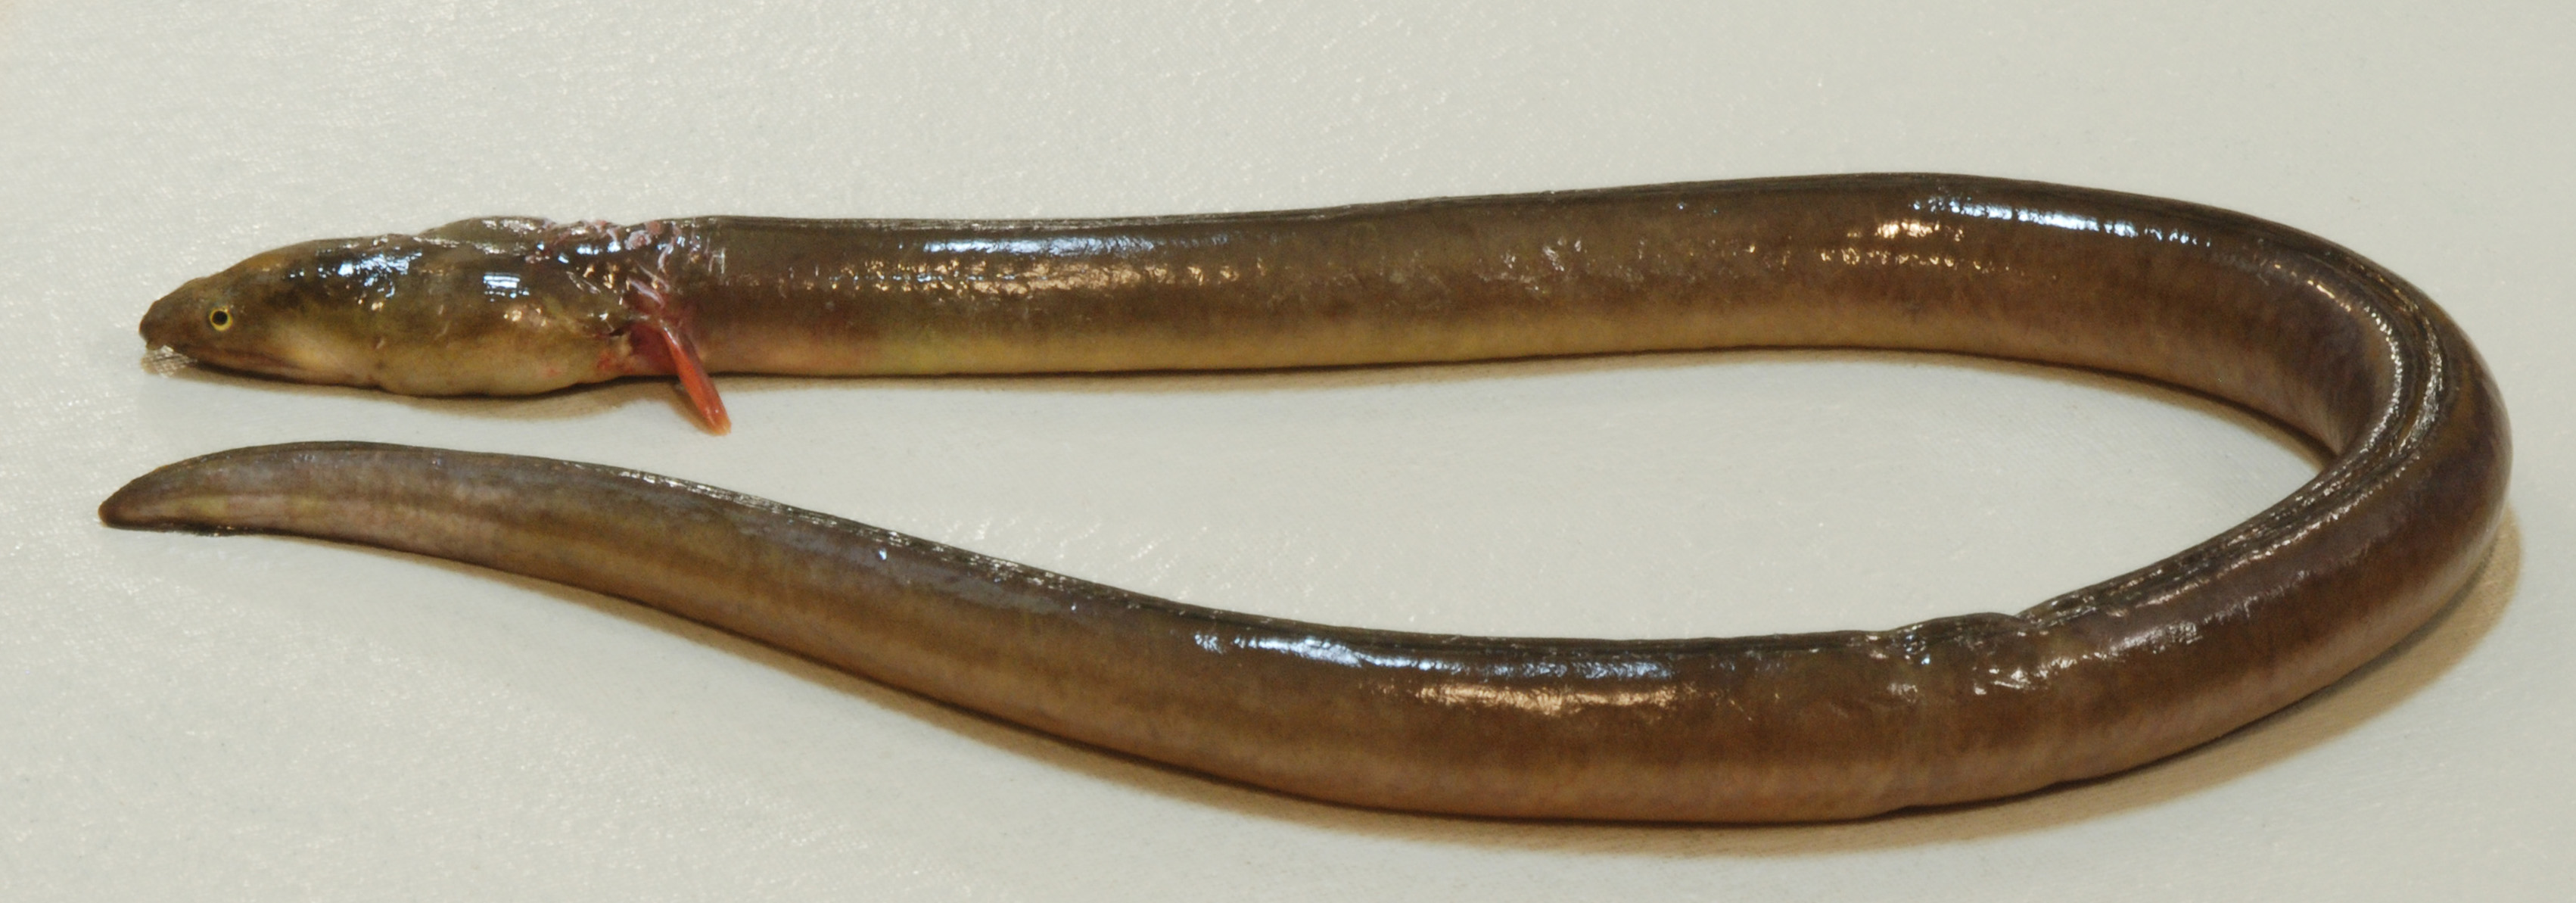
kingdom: Animalia
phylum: Chordata
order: Anguilliformes
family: Ophichthidae
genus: Pisodonophis
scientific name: Pisodonophis boro
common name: Rice-paddy eel
